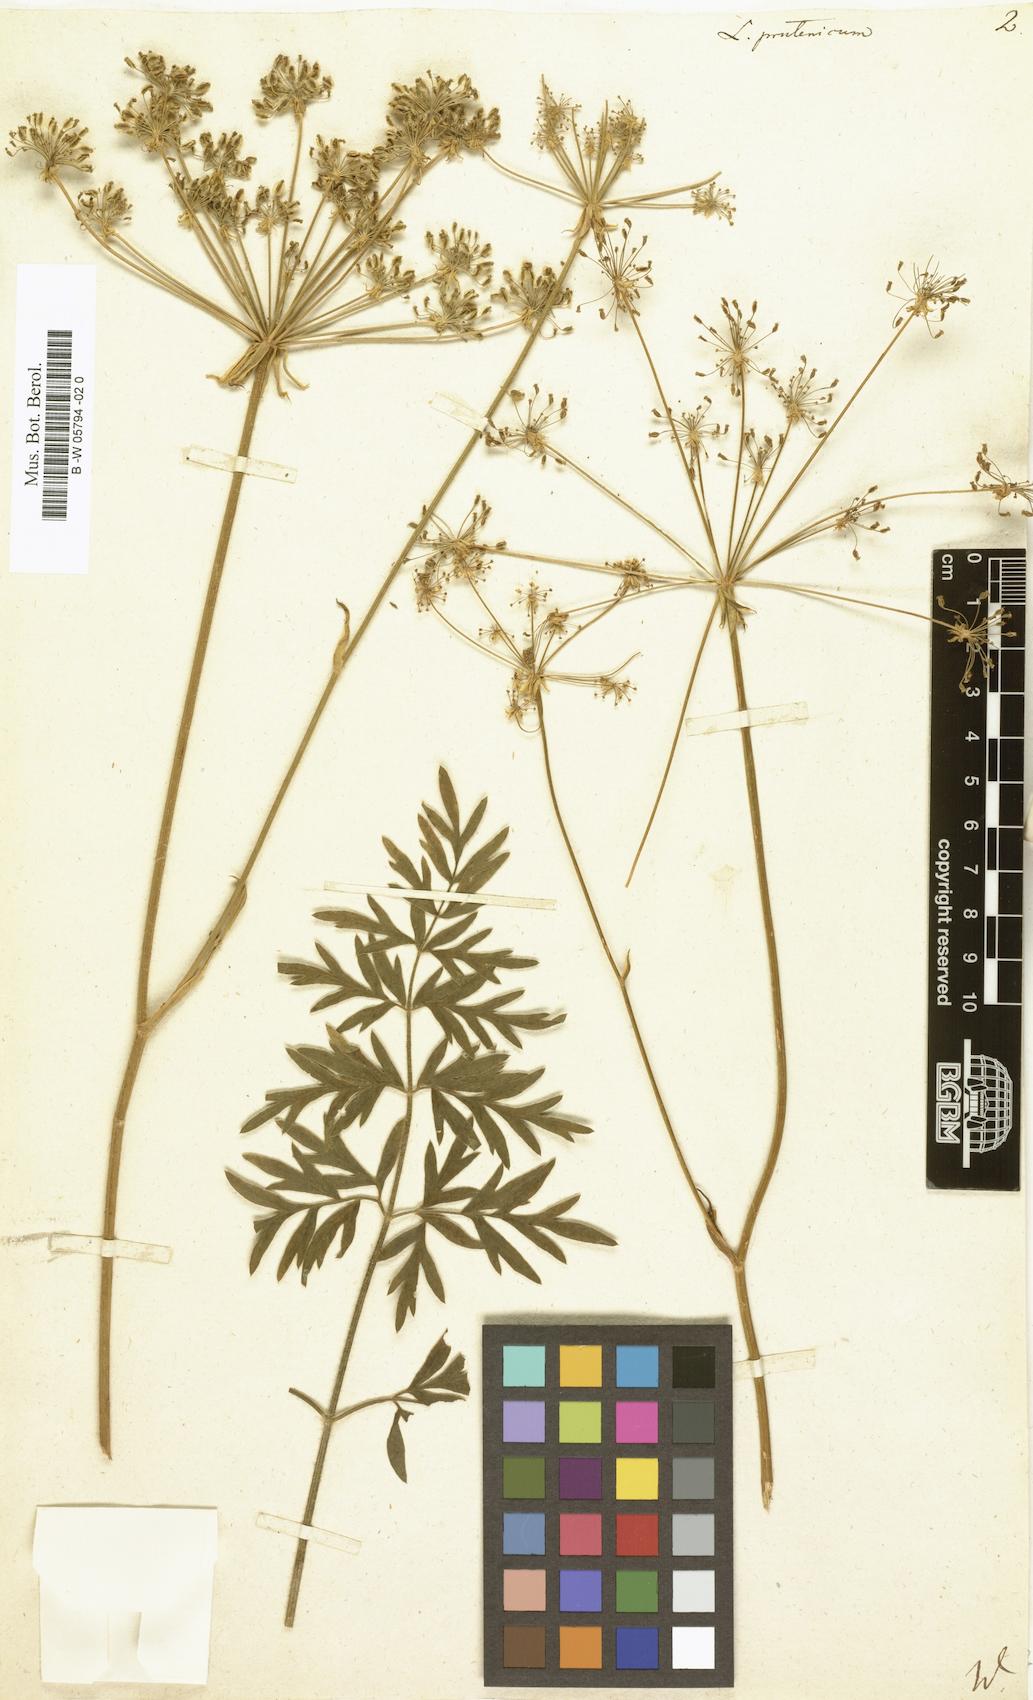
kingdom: Plantae
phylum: Tracheophyta
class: Magnoliopsida
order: Apiales
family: Apiaceae
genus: Silphiodaucus
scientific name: Silphiodaucus prutenicus
